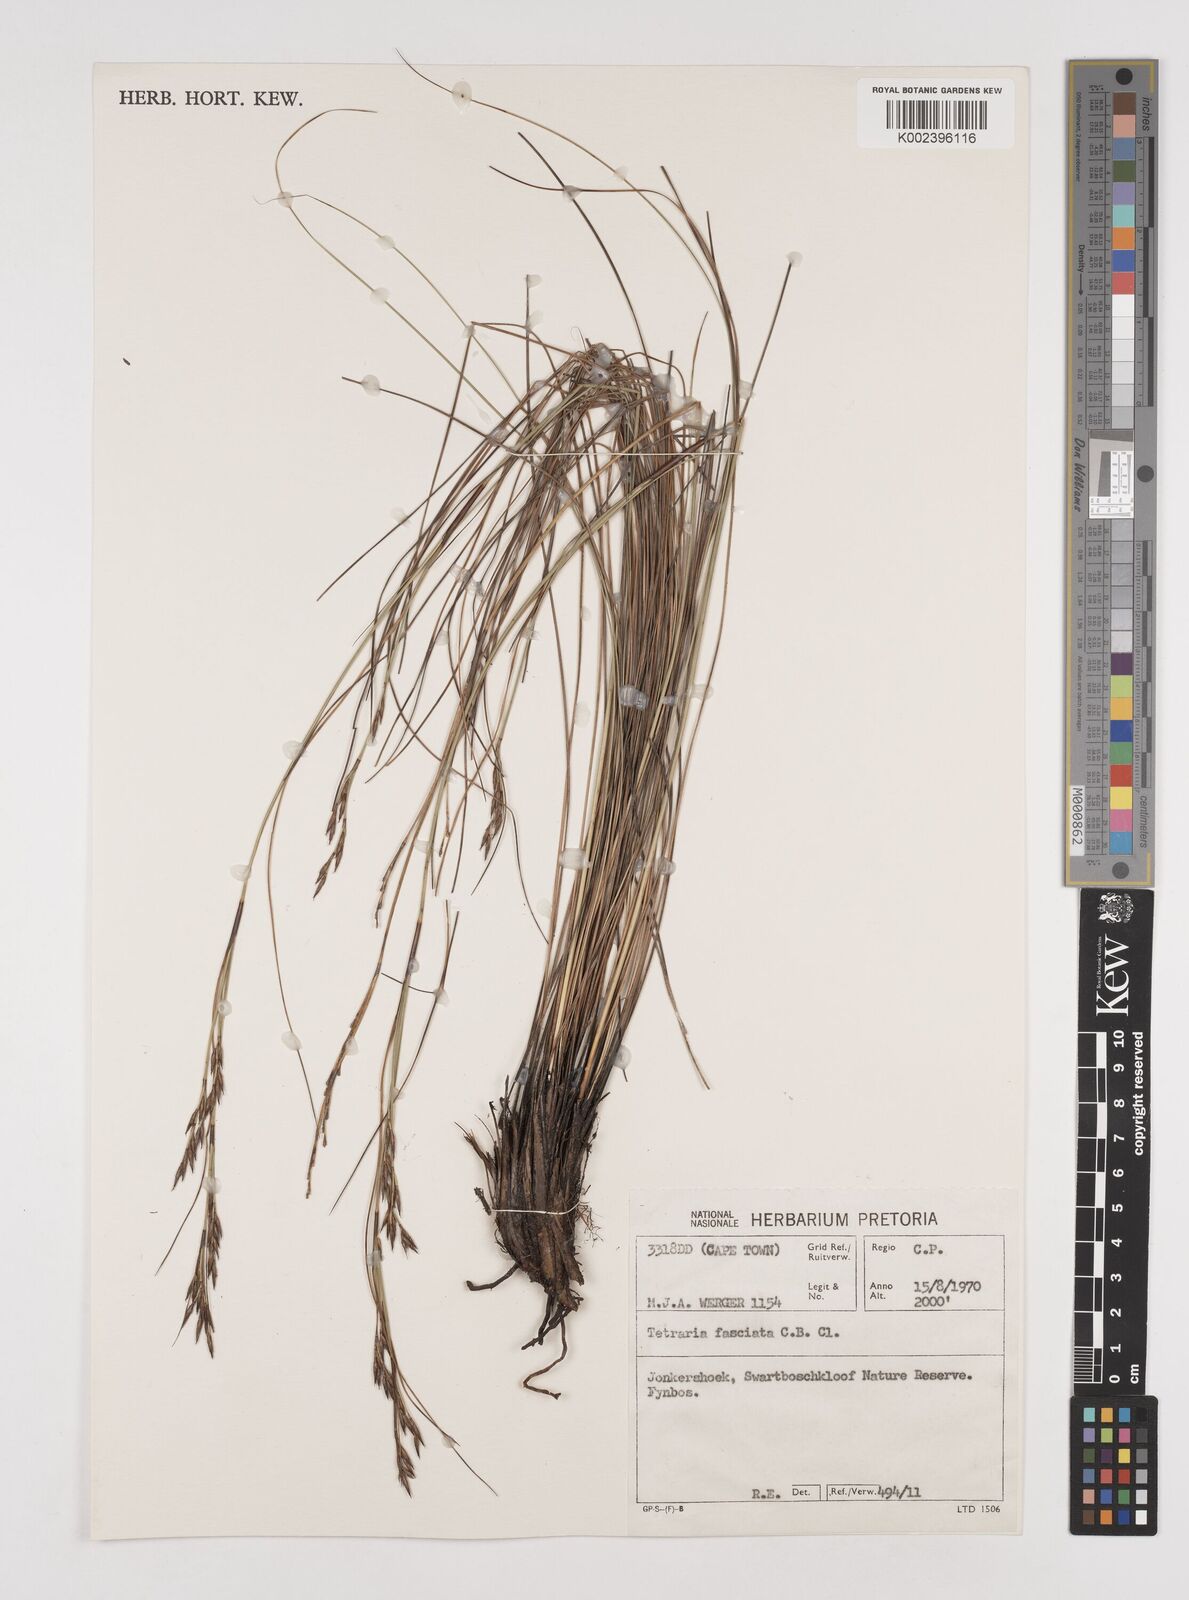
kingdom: Plantae
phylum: Tracheophyta
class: Liliopsida
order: Poales
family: Cyperaceae
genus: Tetraria
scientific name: Tetraria fasciata
